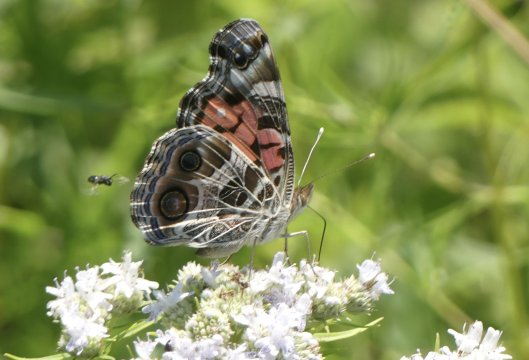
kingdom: Animalia
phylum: Arthropoda
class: Insecta
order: Lepidoptera
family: Nymphalidae
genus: Vanessa
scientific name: Vanessa virginiensis
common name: American Lady
